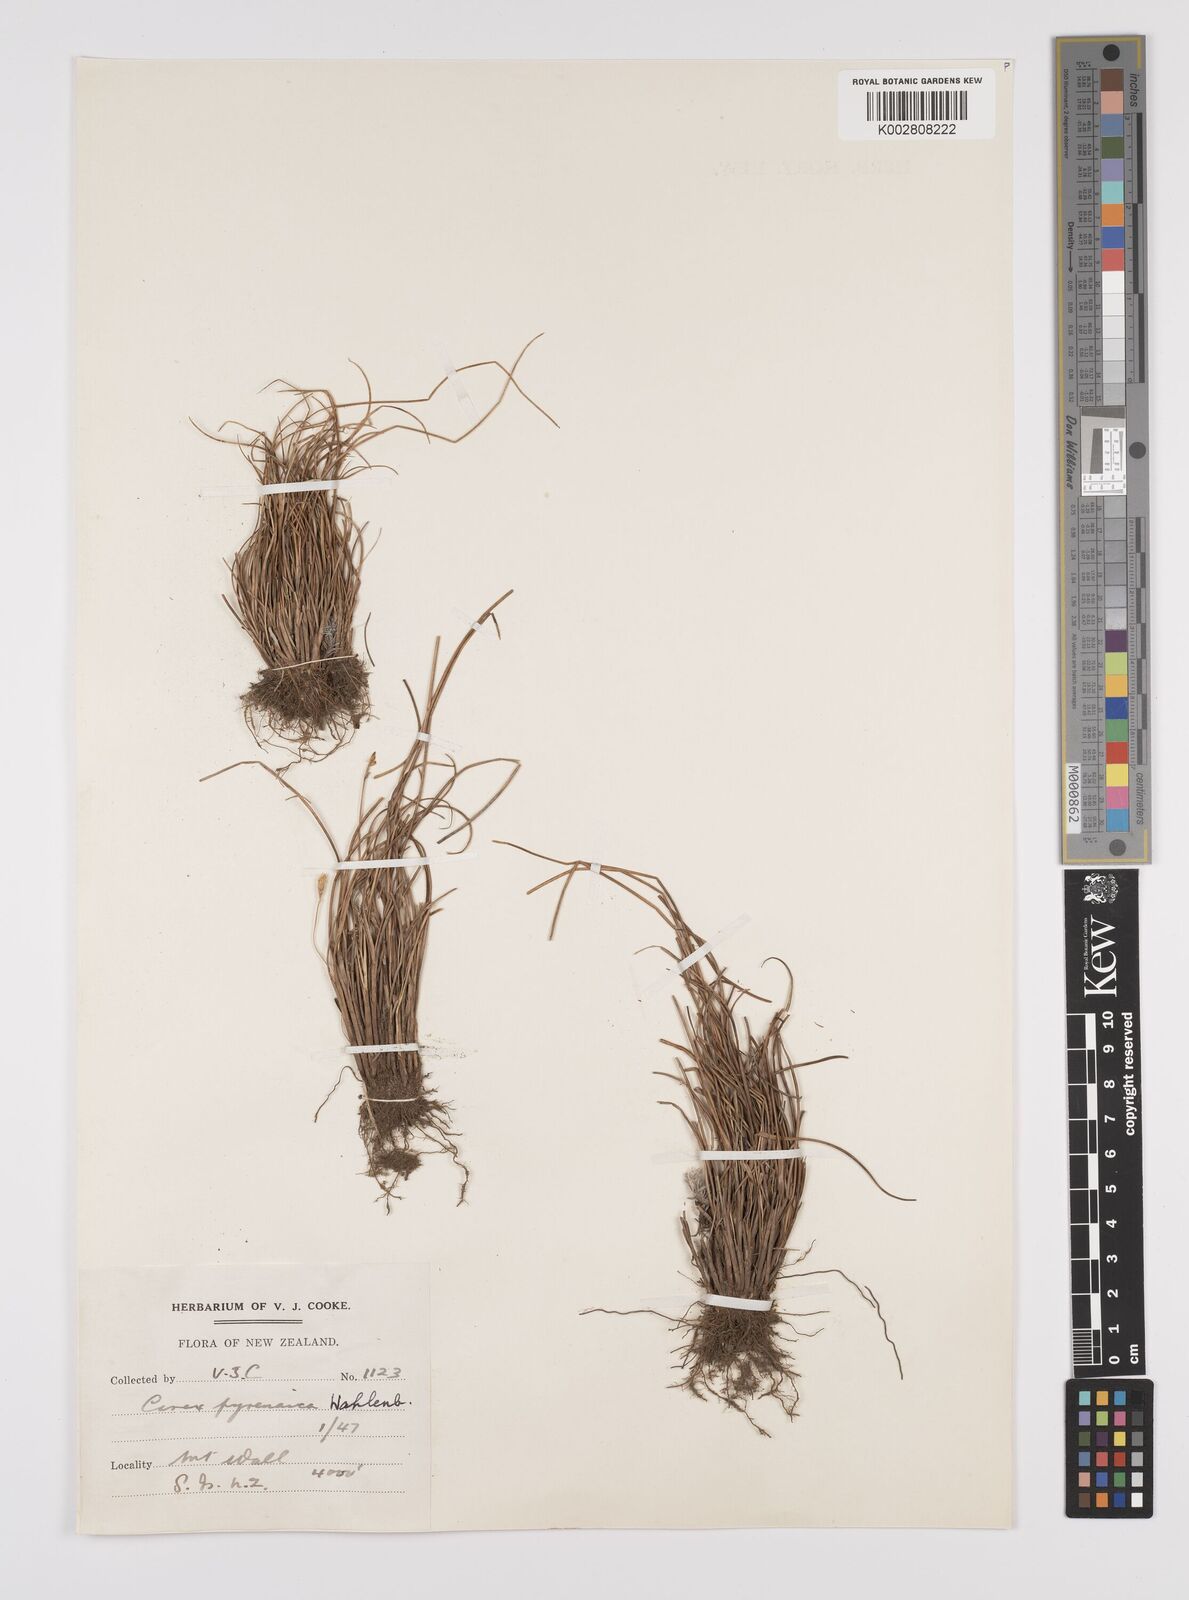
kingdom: Plantae
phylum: Tracheophyta
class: Liliopsida
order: Poales
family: Cyperaceae
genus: Carex
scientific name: Carex pyrenaica
